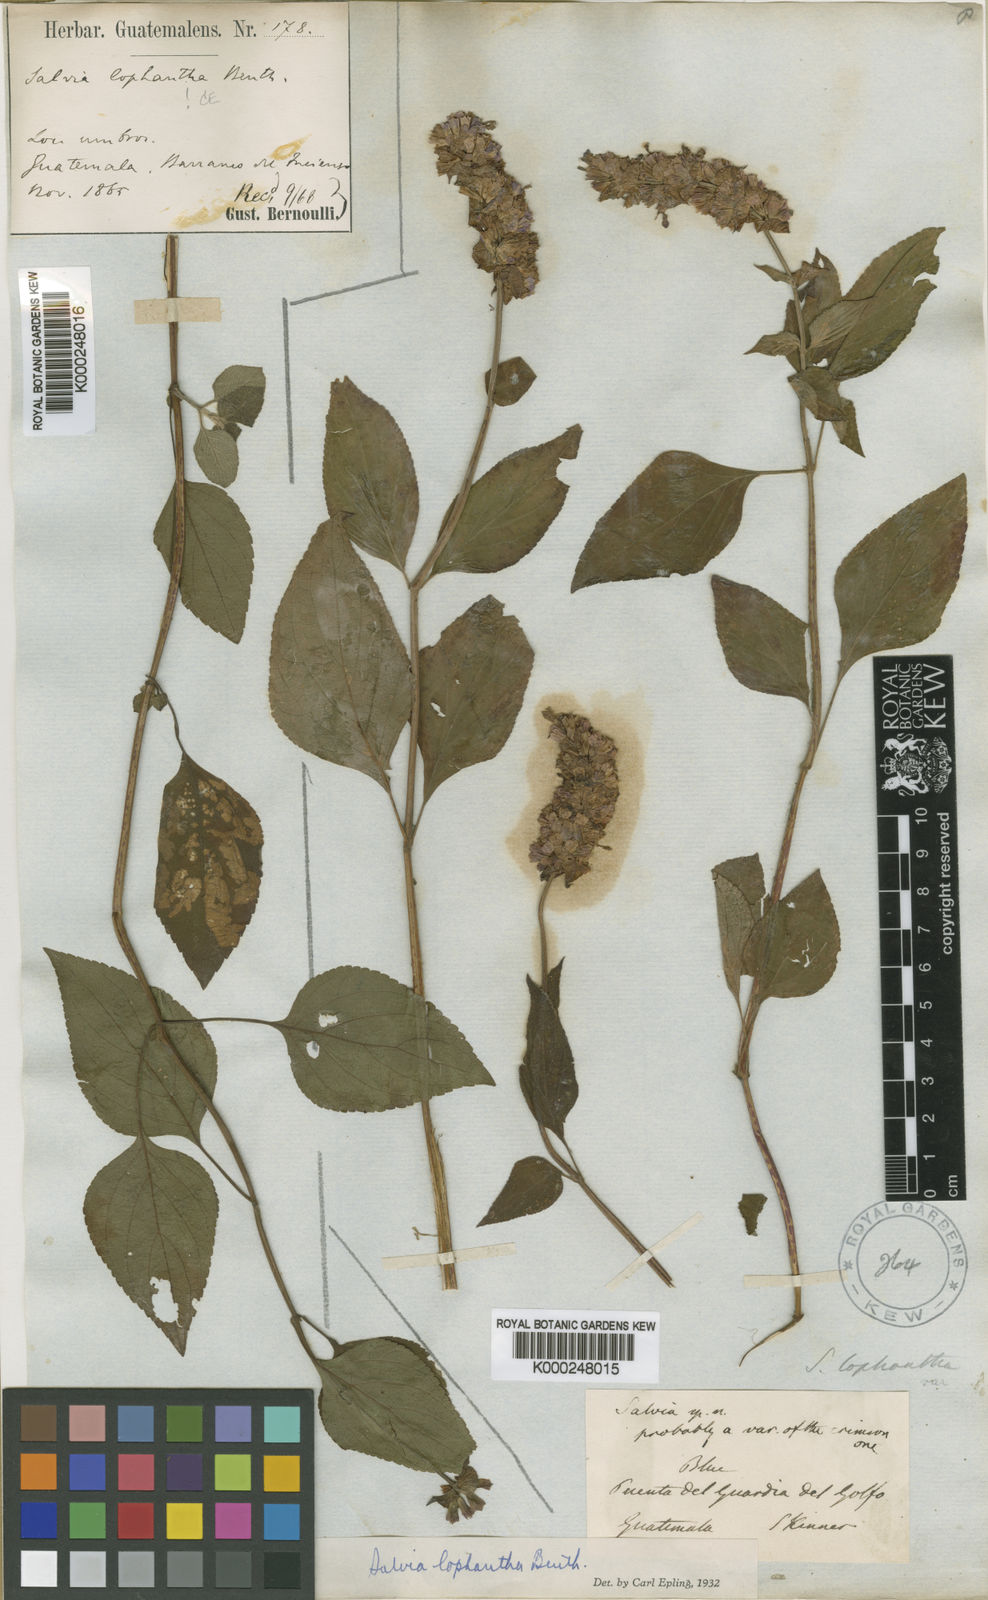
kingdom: Plantae
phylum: Tracheophyta
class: Magnoliopsida
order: Lamiales
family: Lamiaceae
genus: Salvia
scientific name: Salvia mocinoi
